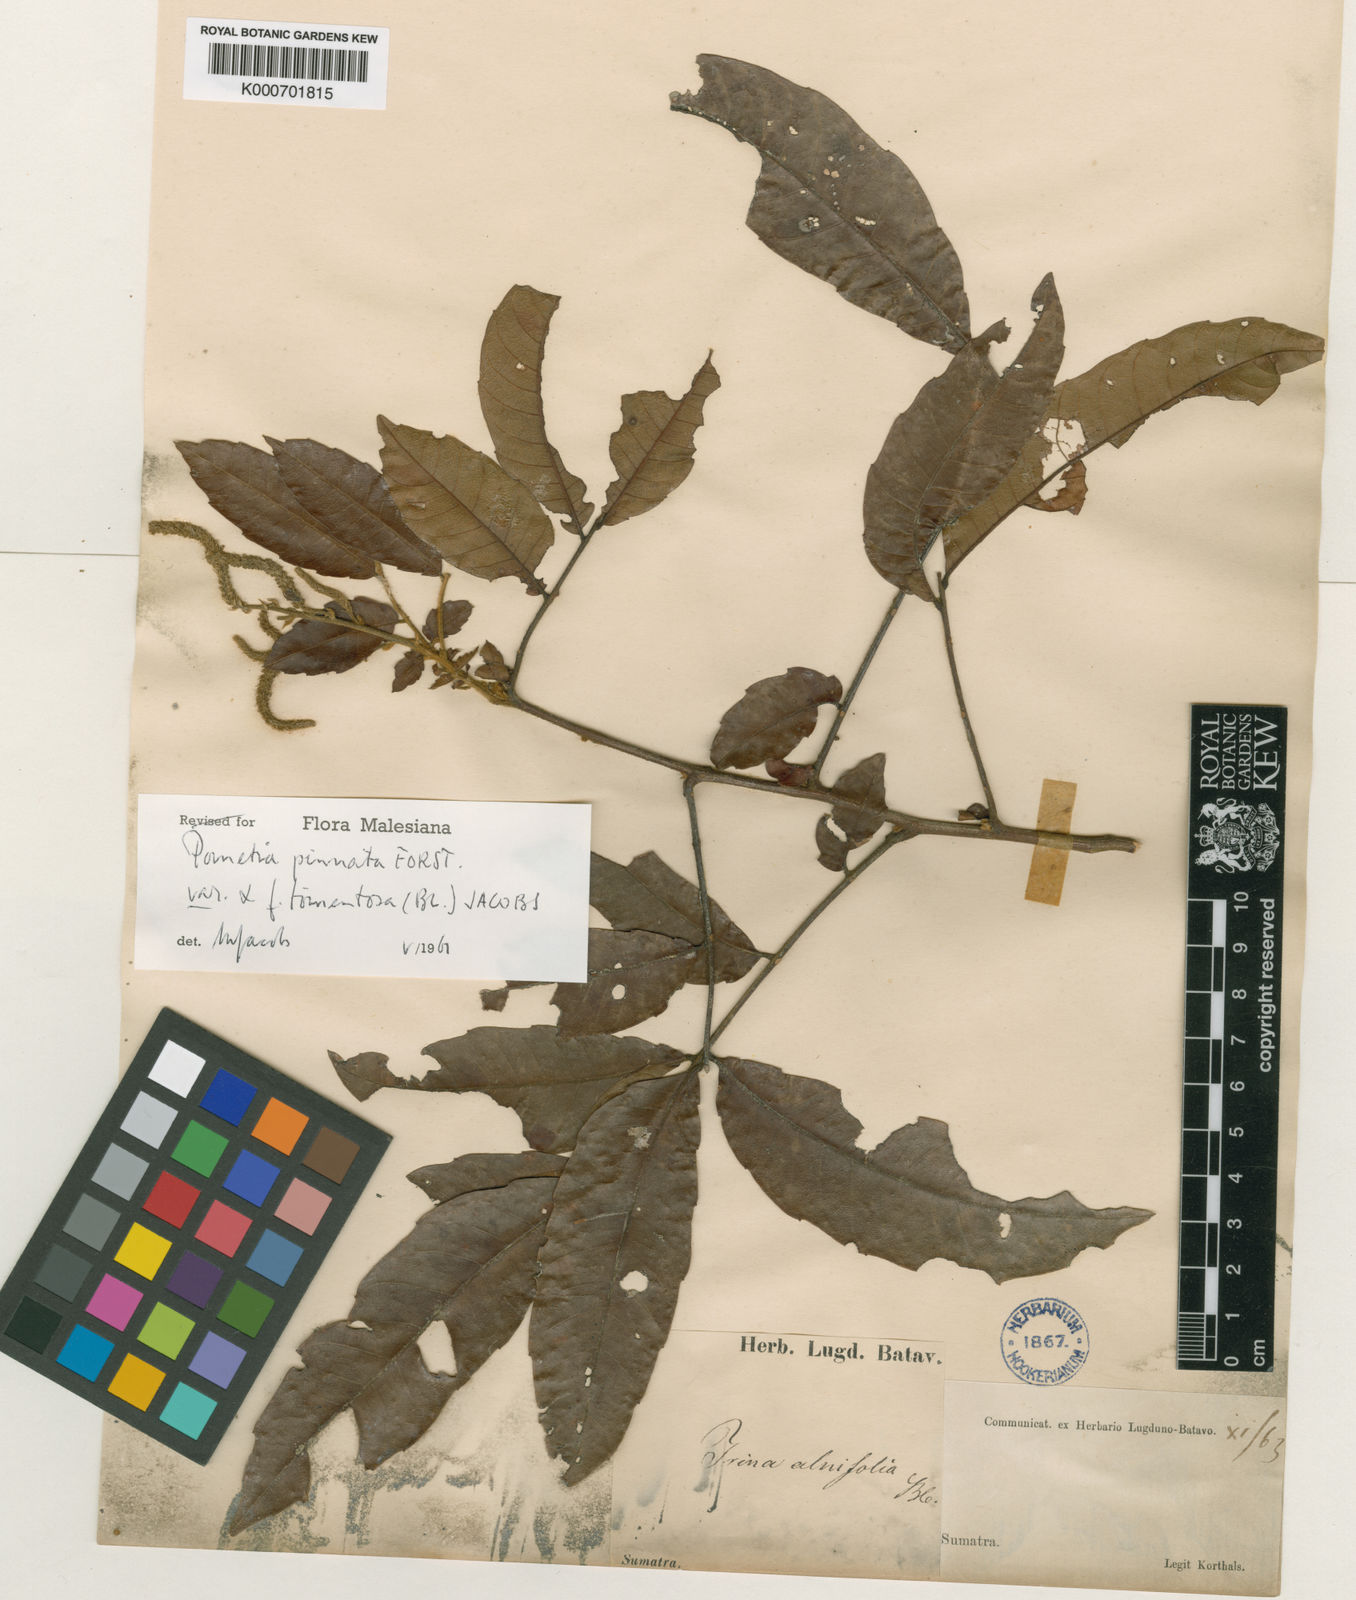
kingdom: Plantae
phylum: Tracheophyta
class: Magnoliopsida
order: Sapindales
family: Sapindaceae
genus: Pometia
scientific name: Pometia pinnata
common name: Oceanic lychee
